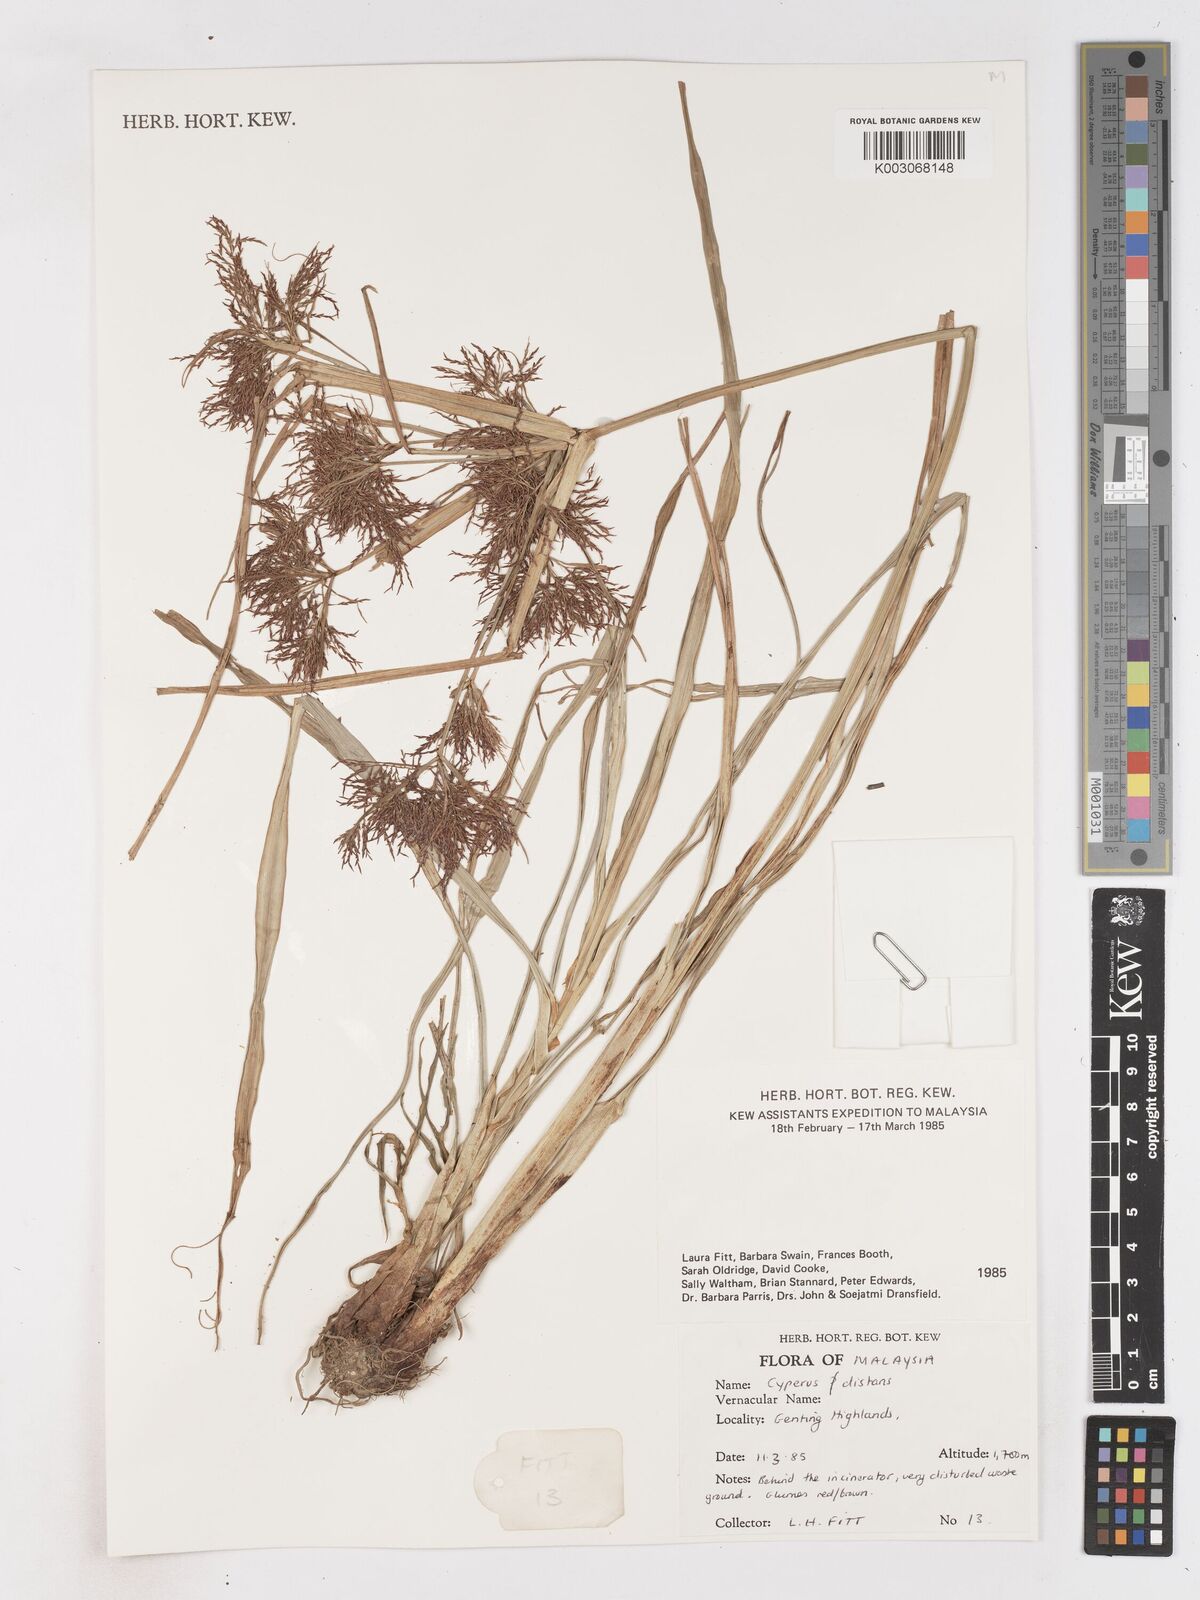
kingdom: Plantae
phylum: Tracheophyta
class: Liliopsida
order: Poales
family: Cyperaceae
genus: Cyperus
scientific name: Cyperus distans
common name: Slender cyperus
